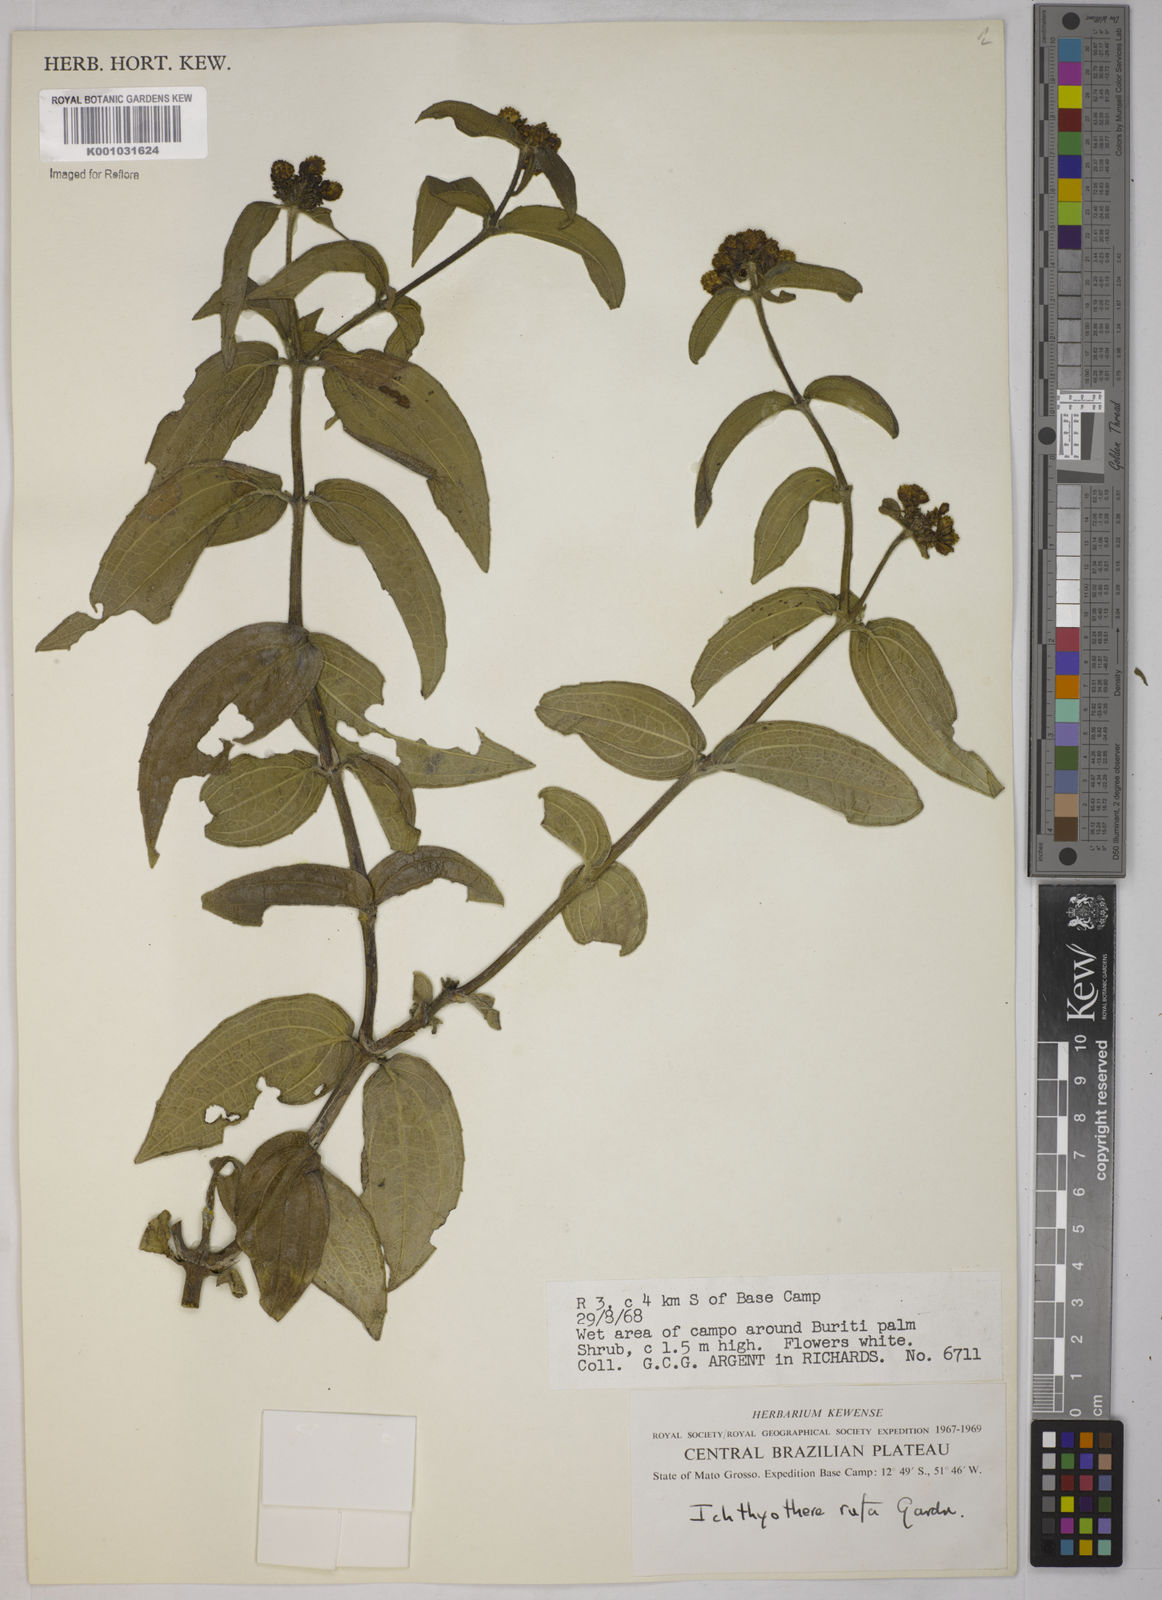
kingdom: Plantae
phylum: Tracheophyta
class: Magnoliopsida
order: Asterales
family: Asteraceae
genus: Ichthyothere
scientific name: Ichthyothere rufa
